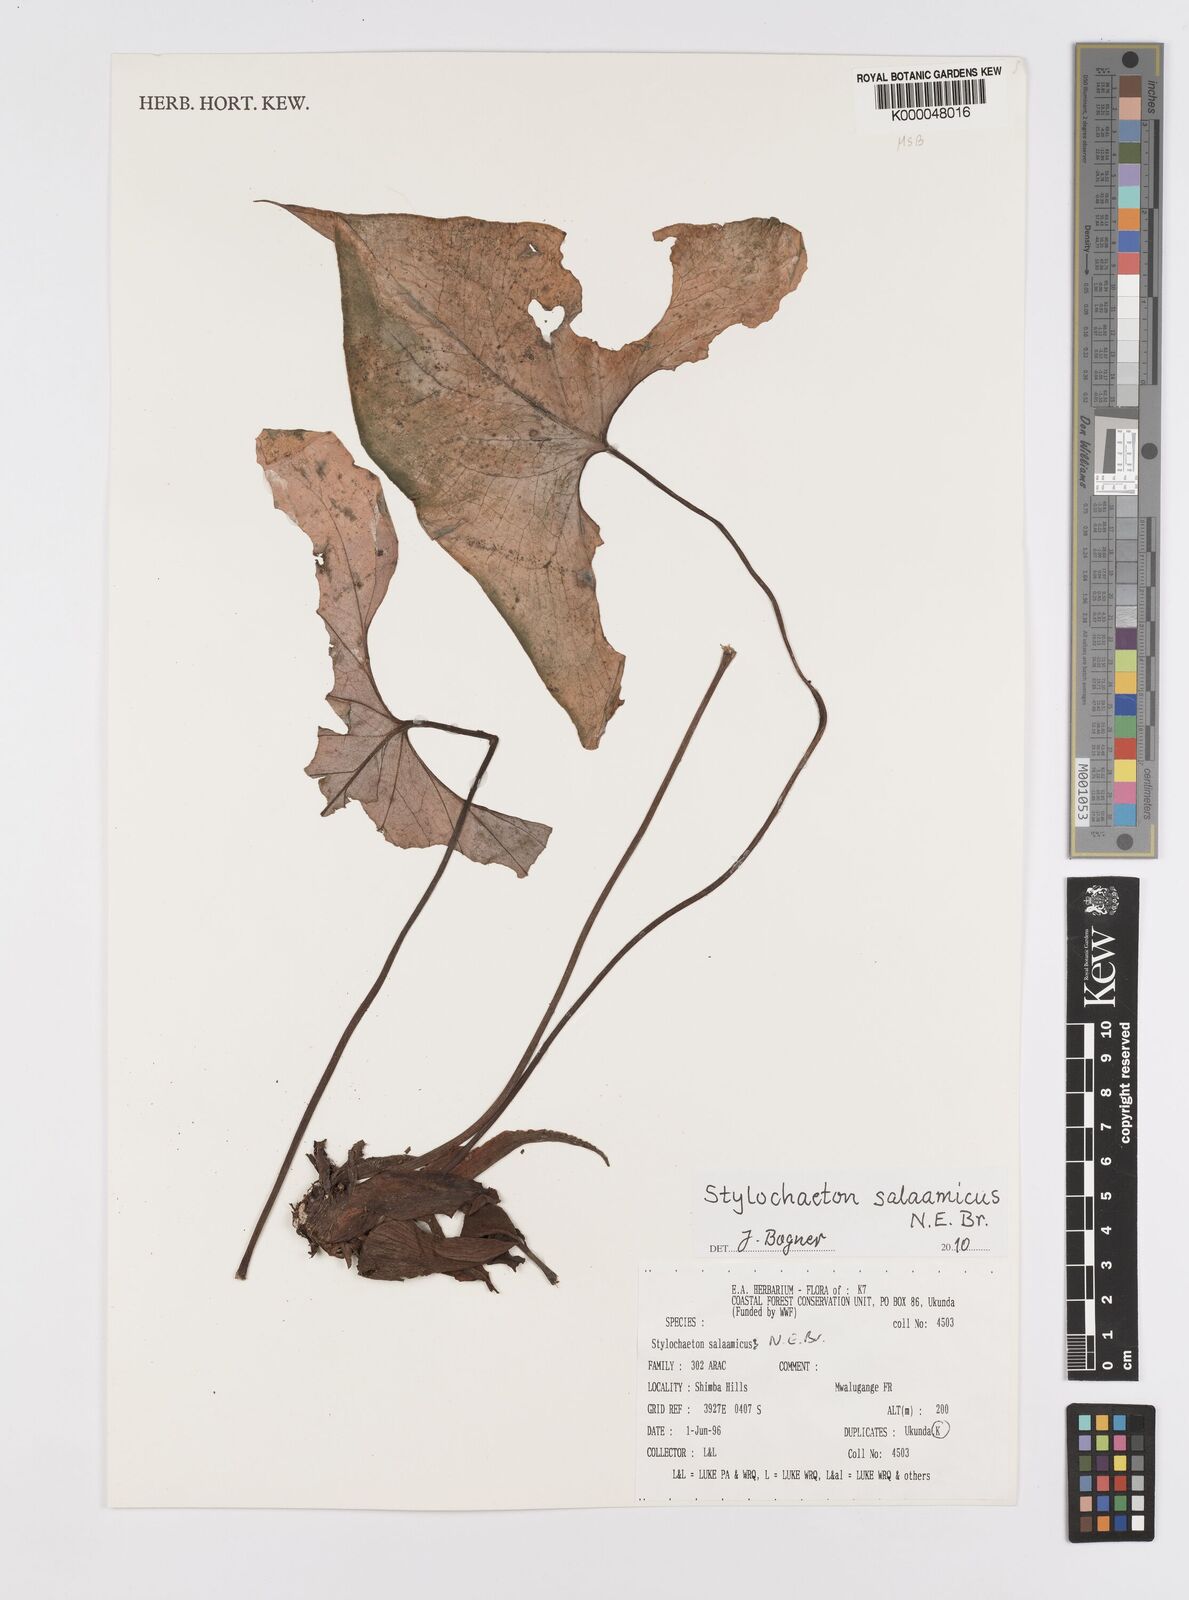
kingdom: Plantae
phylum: Tracheophyta
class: Liliopsida
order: Alismatales
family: Araceae
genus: Stylochaeton
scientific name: Stylochaeton salaamicum
